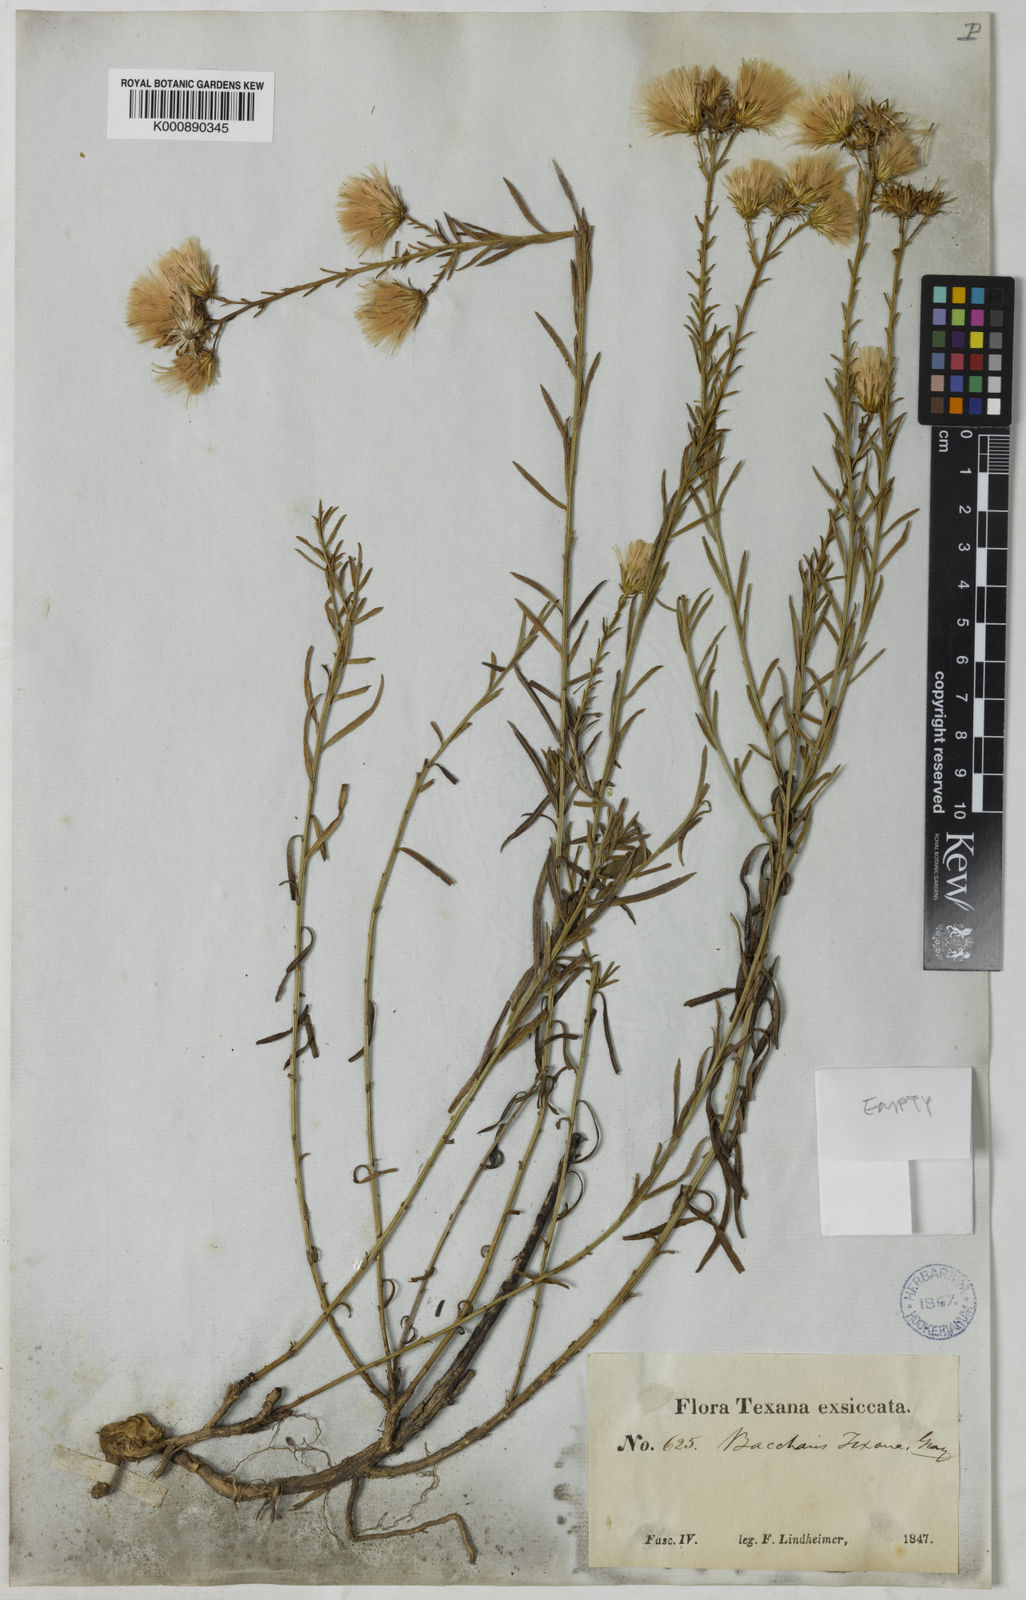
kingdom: Plantae
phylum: Tracheophyta
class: Magnoliopsida
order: Asterales
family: Asteraceae
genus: Baccharis
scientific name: Baccharis texana
